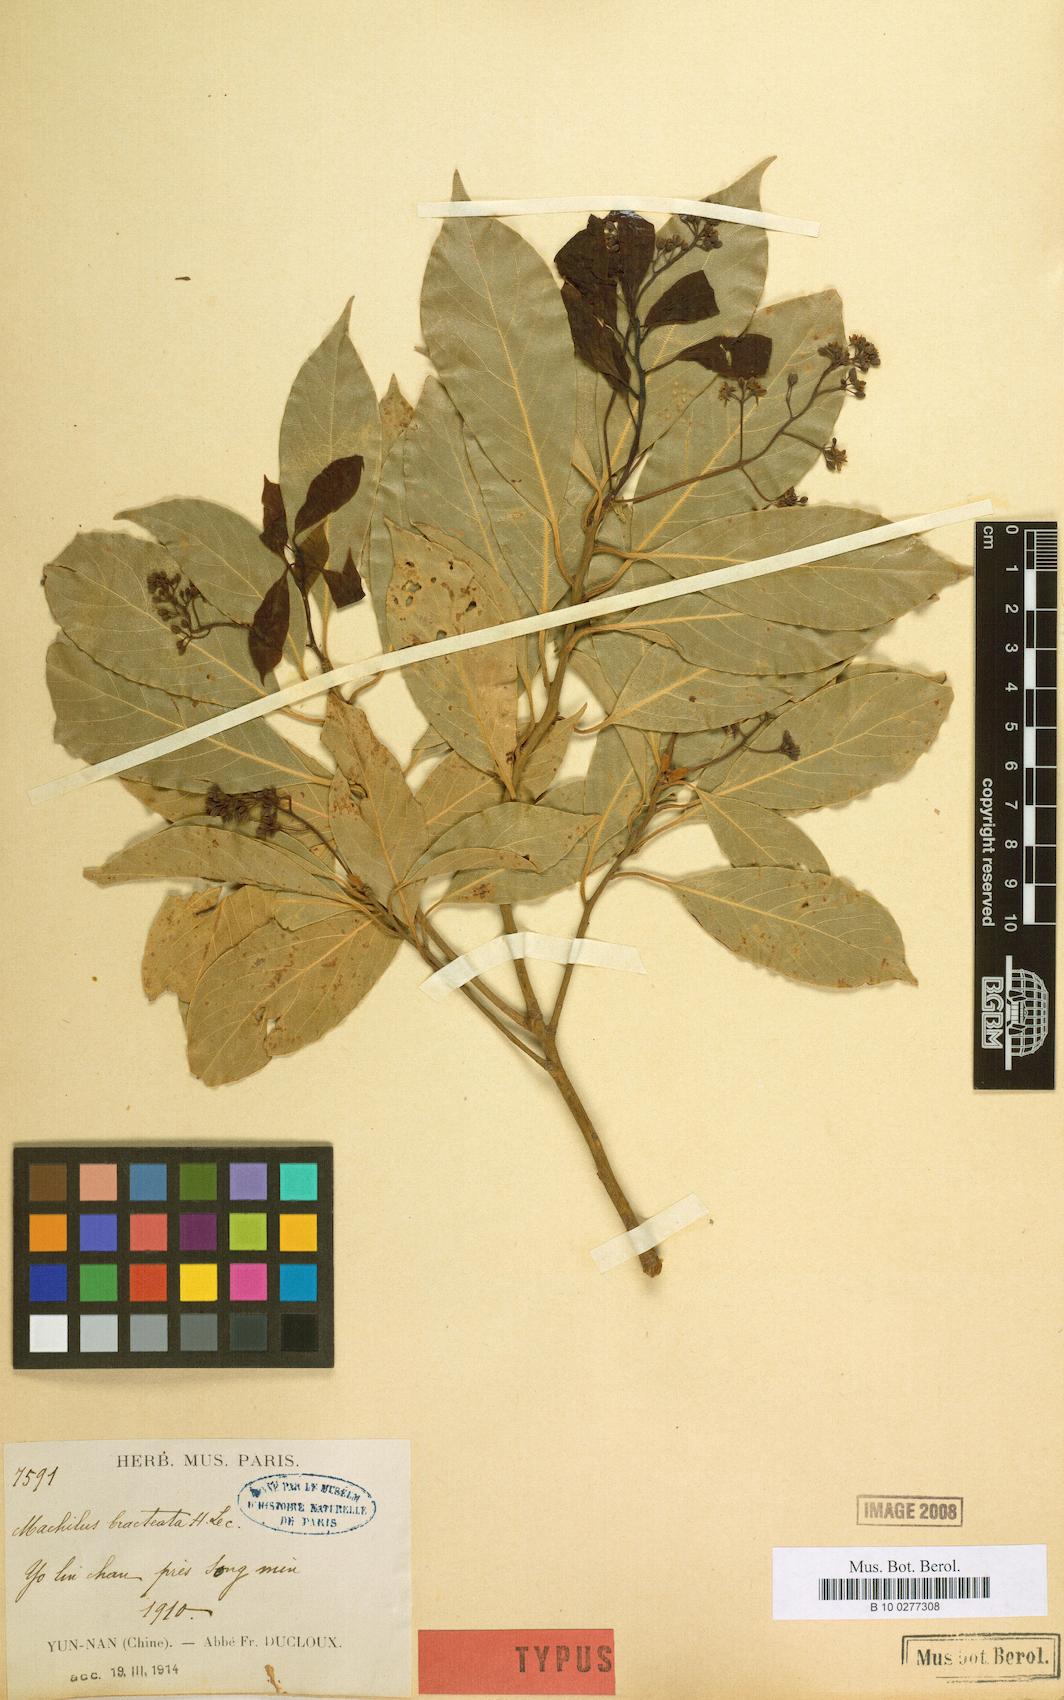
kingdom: Plantae
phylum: Tracheophyta
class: Magnoliopsida
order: Laurales
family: Lauraceae
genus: Machilus
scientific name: Machilus yunnanensis
